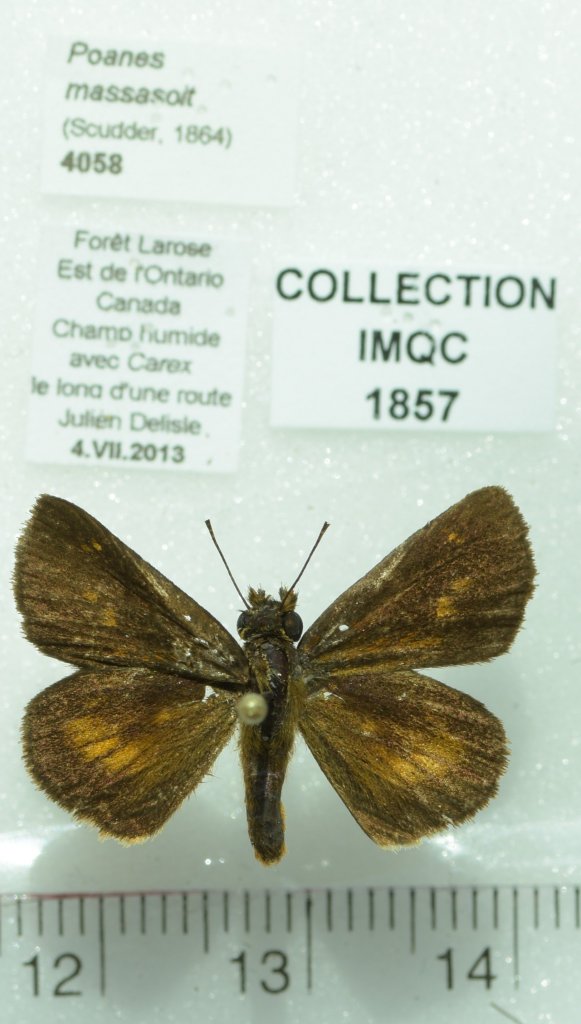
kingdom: Animalia
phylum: Arthropoda
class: Insecta
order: Lepidoptera
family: Hesperiidae
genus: Poanes
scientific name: Poanes massasoit
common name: Mulberry Wing
